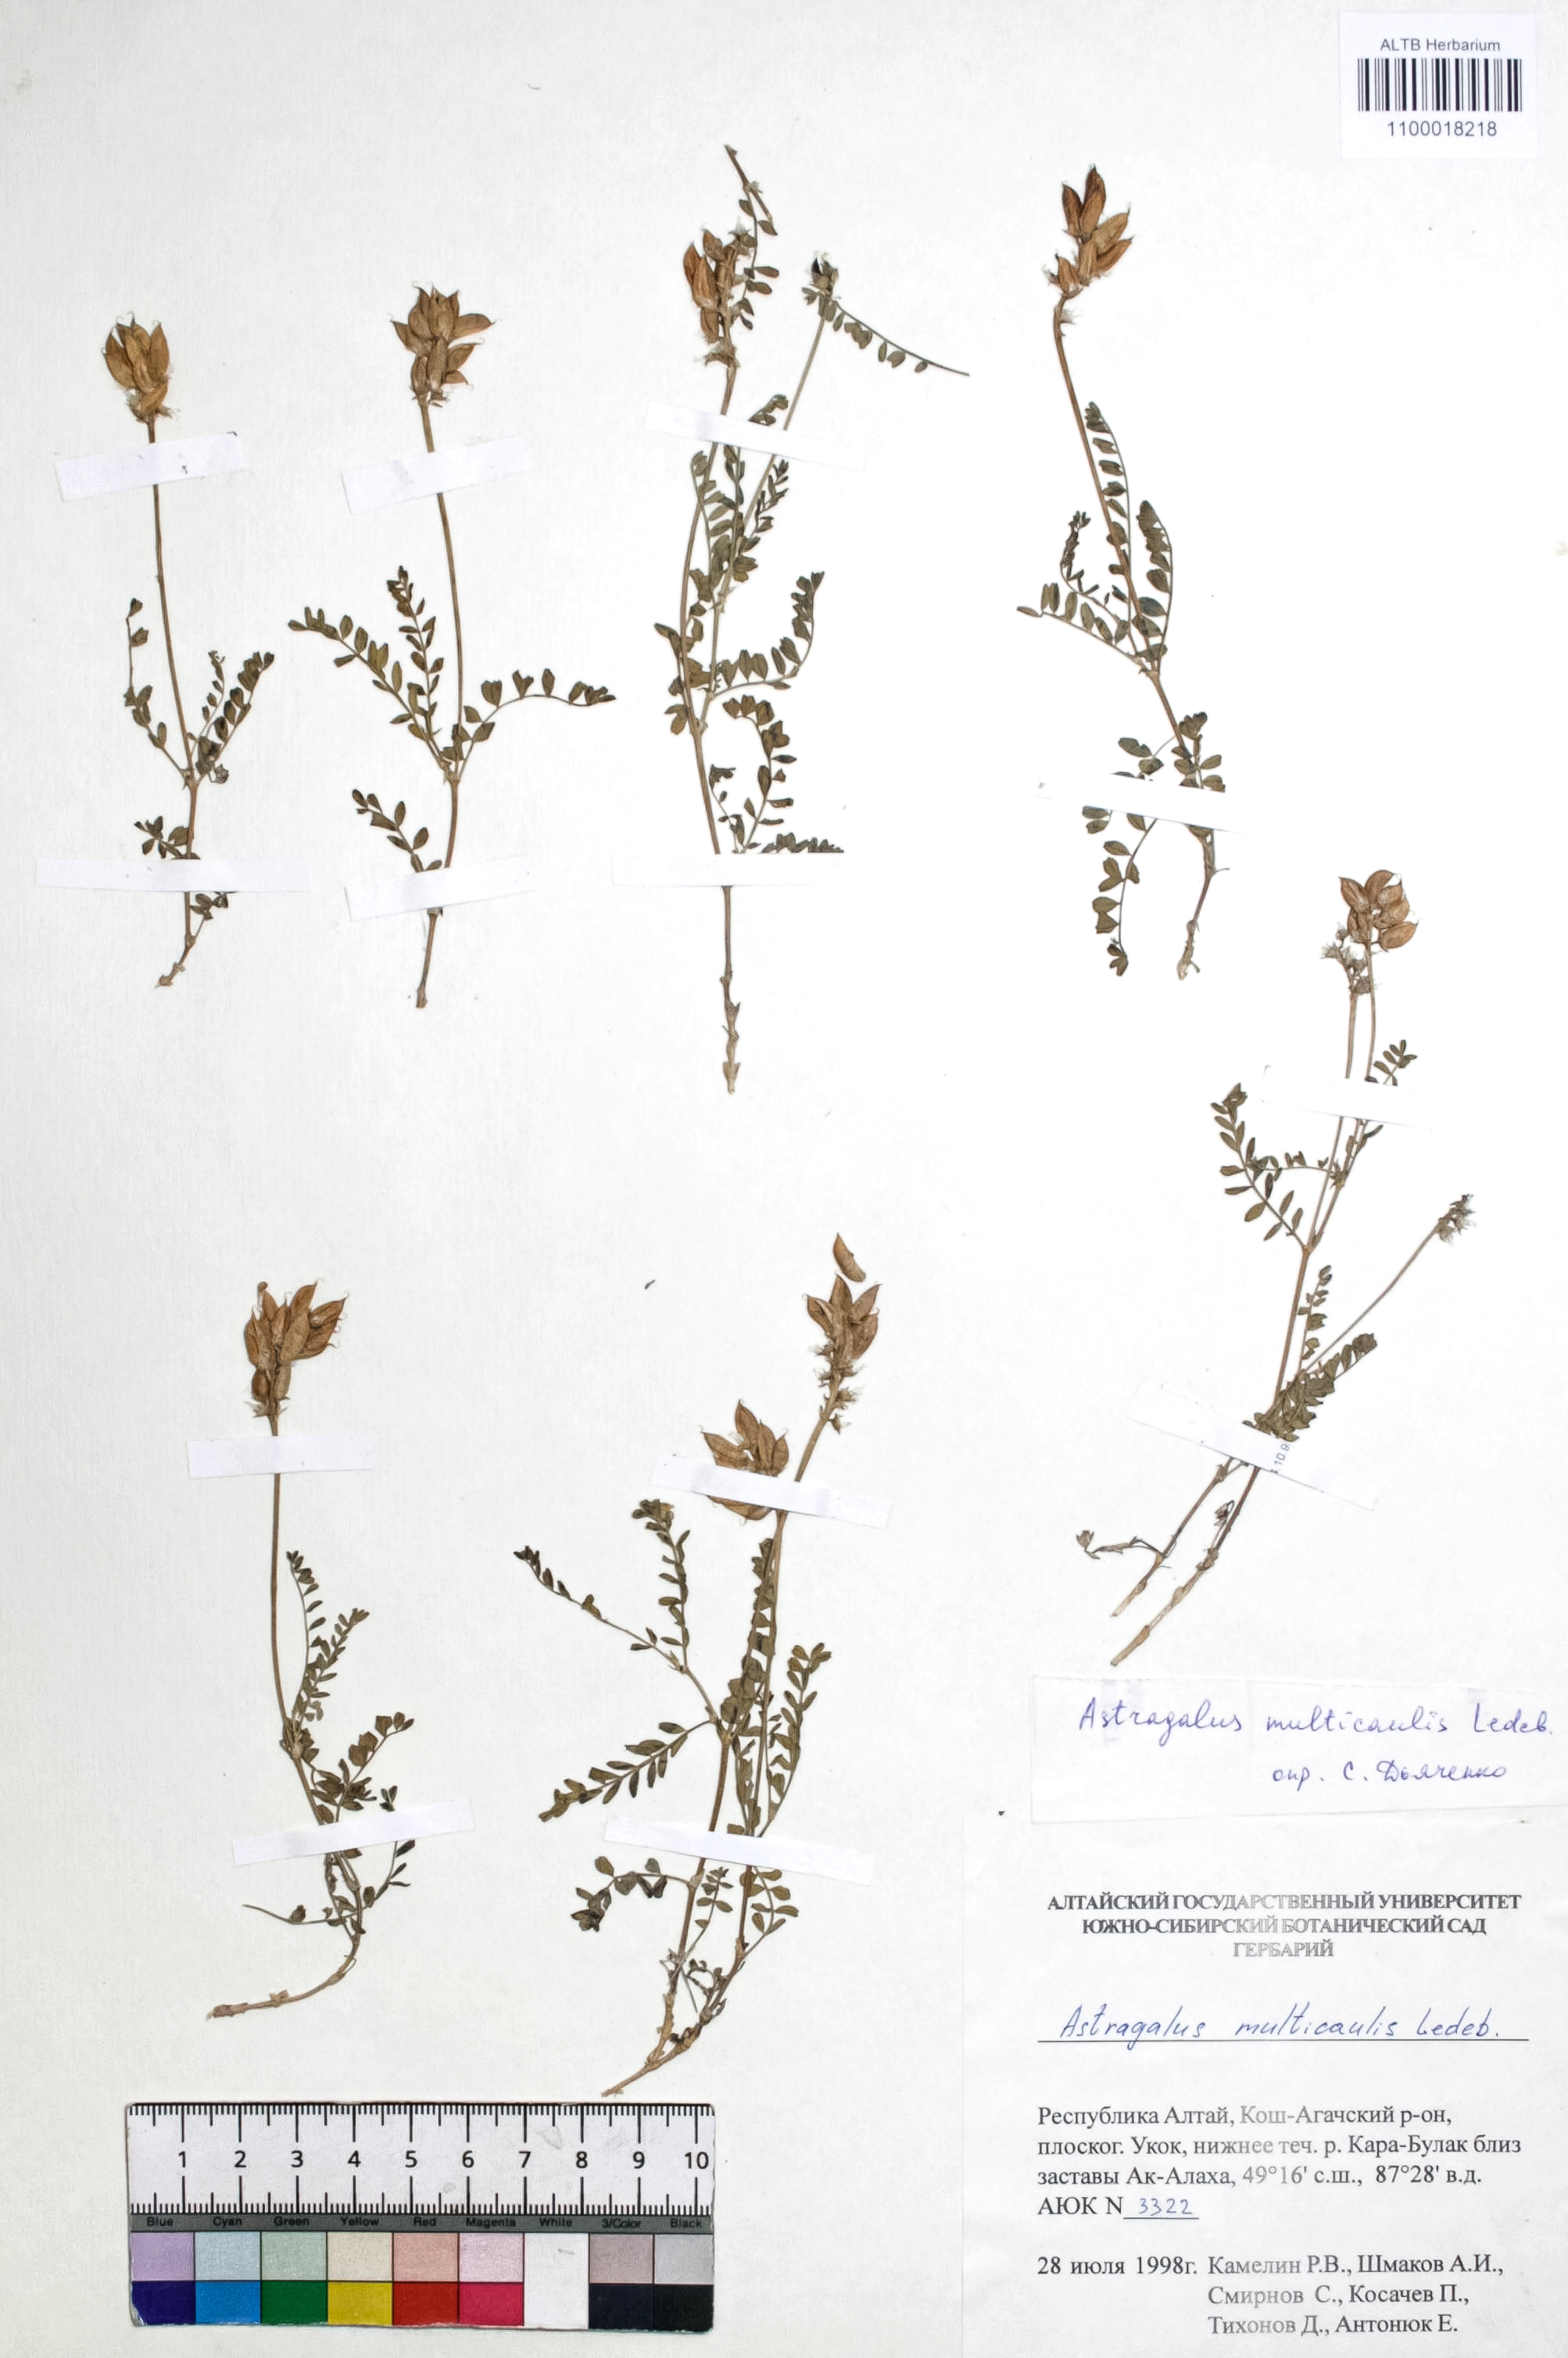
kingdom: Plantae
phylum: Tracheophyta
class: Magnoliopsida
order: Fabales
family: Fabaceae
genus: Astragalus
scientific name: Astragalus leptostachys
